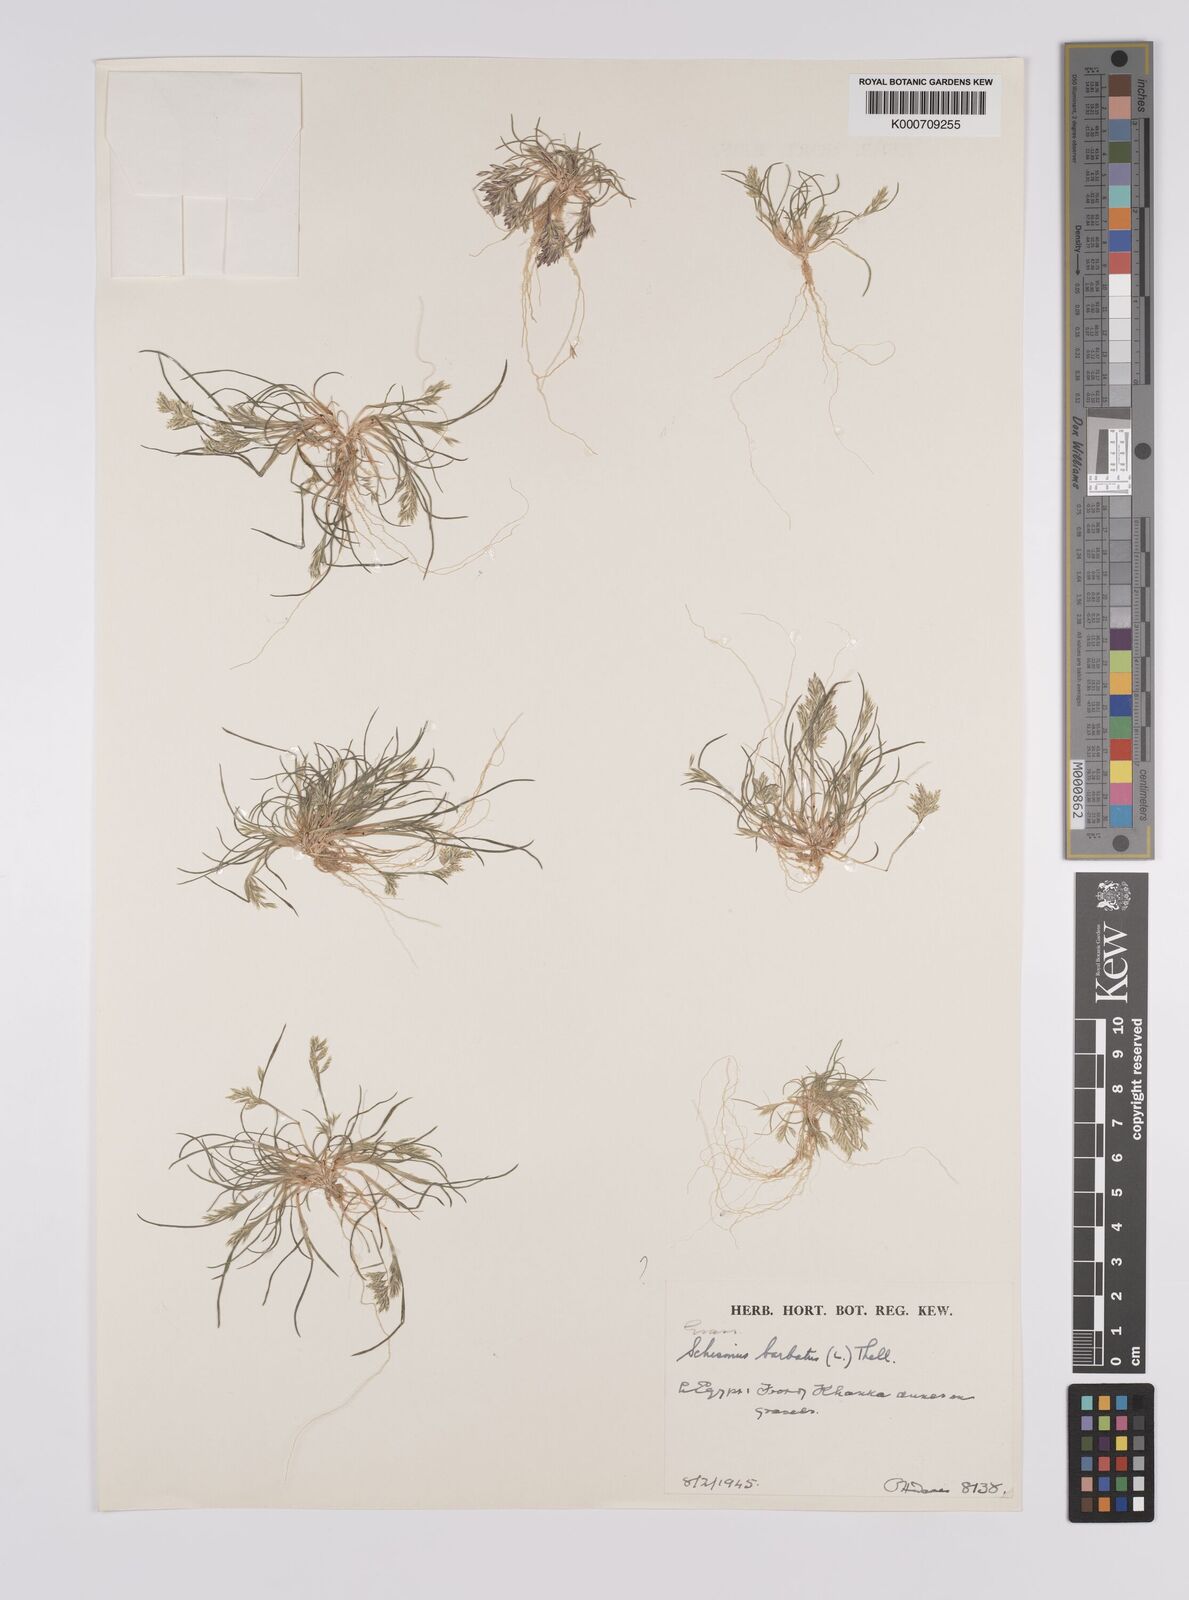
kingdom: Plantae
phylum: Tracheophyta
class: Liliopsida
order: Poales
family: Poaceae
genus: Schismus
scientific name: Schismus barbatus
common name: Kelch-grass
